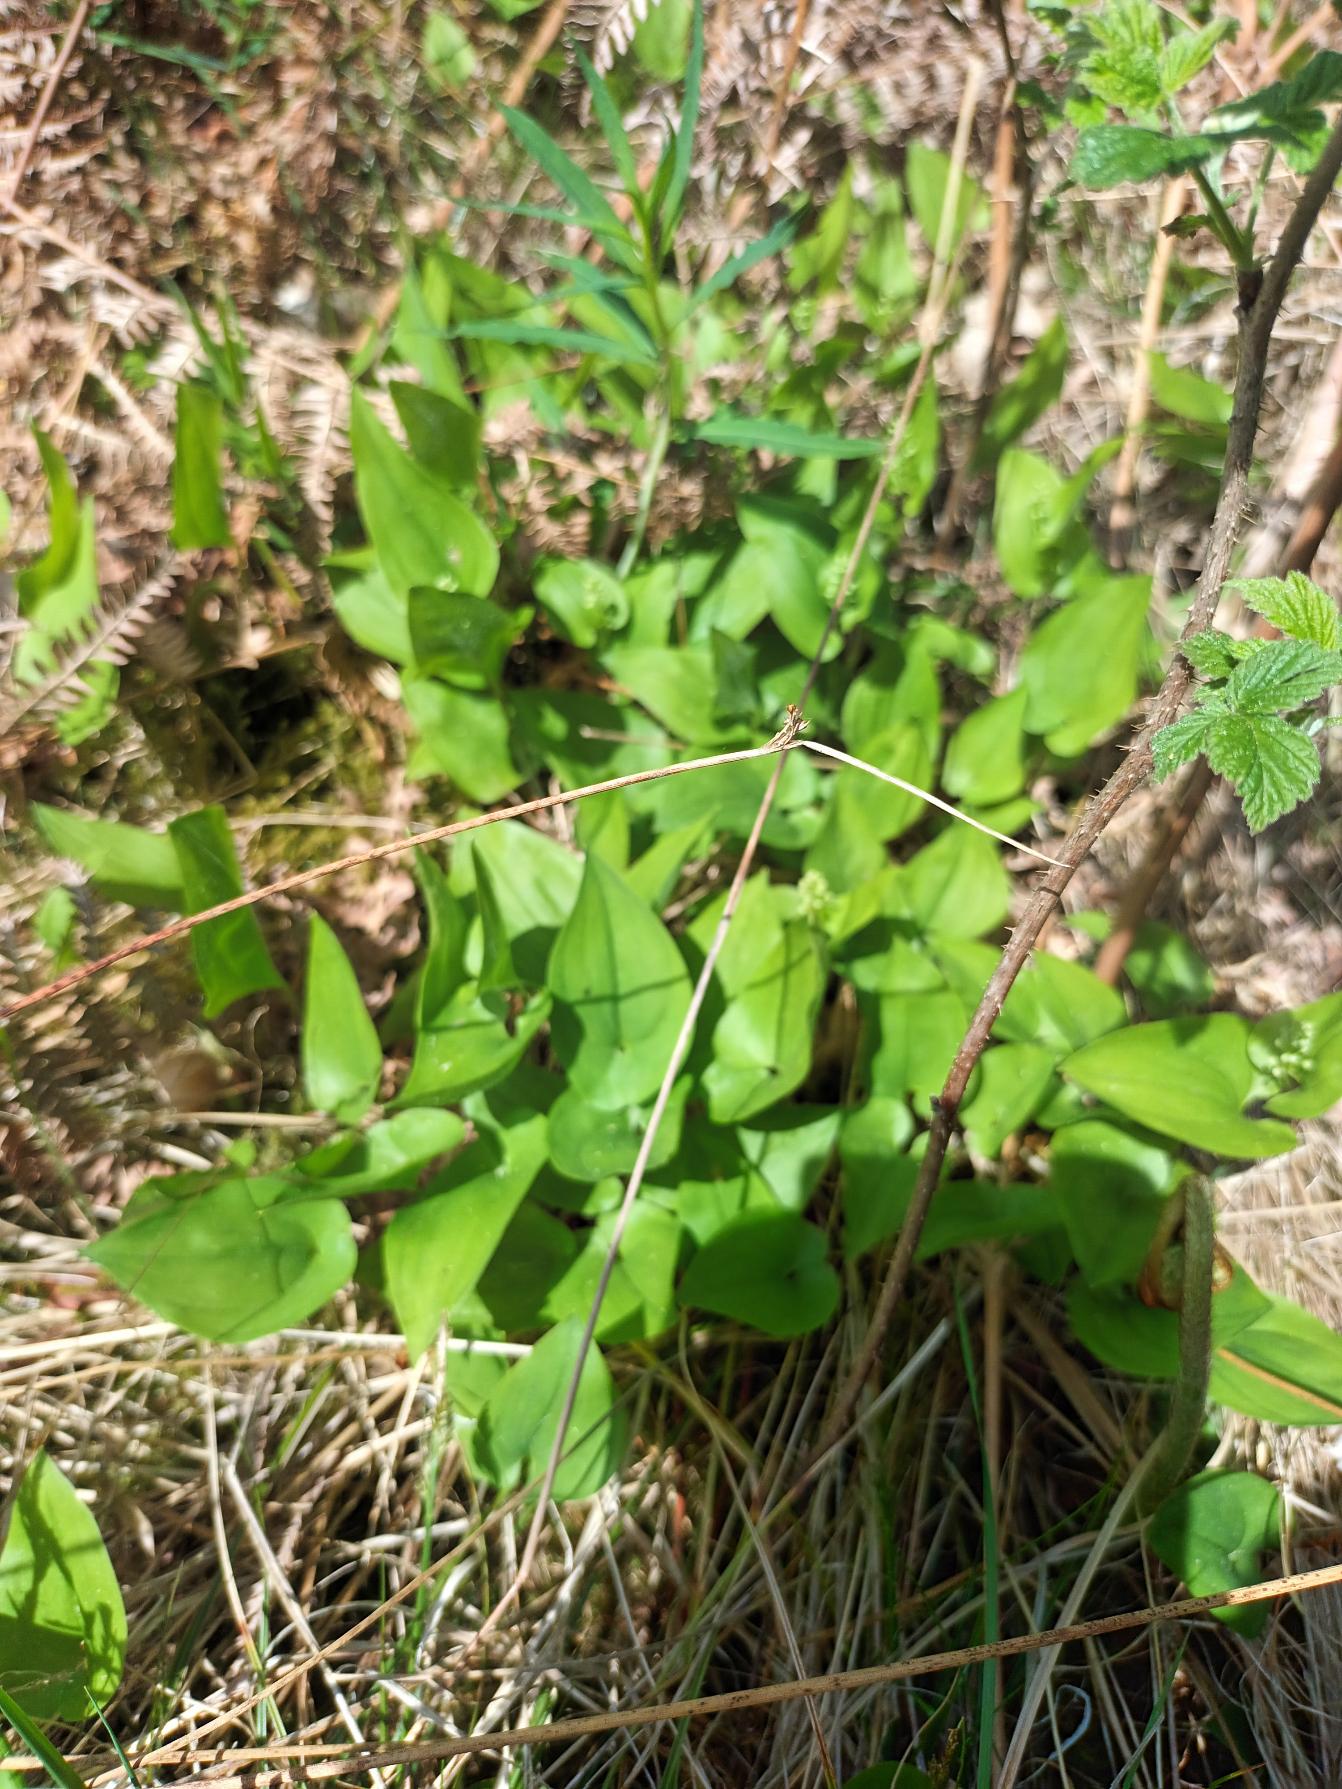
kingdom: Plantae
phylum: Tracheophyta
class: Liliopsida
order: Asparagales
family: Asparagaceae
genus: Maianthemum
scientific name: Maianthemum bifolium
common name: Majblomst
